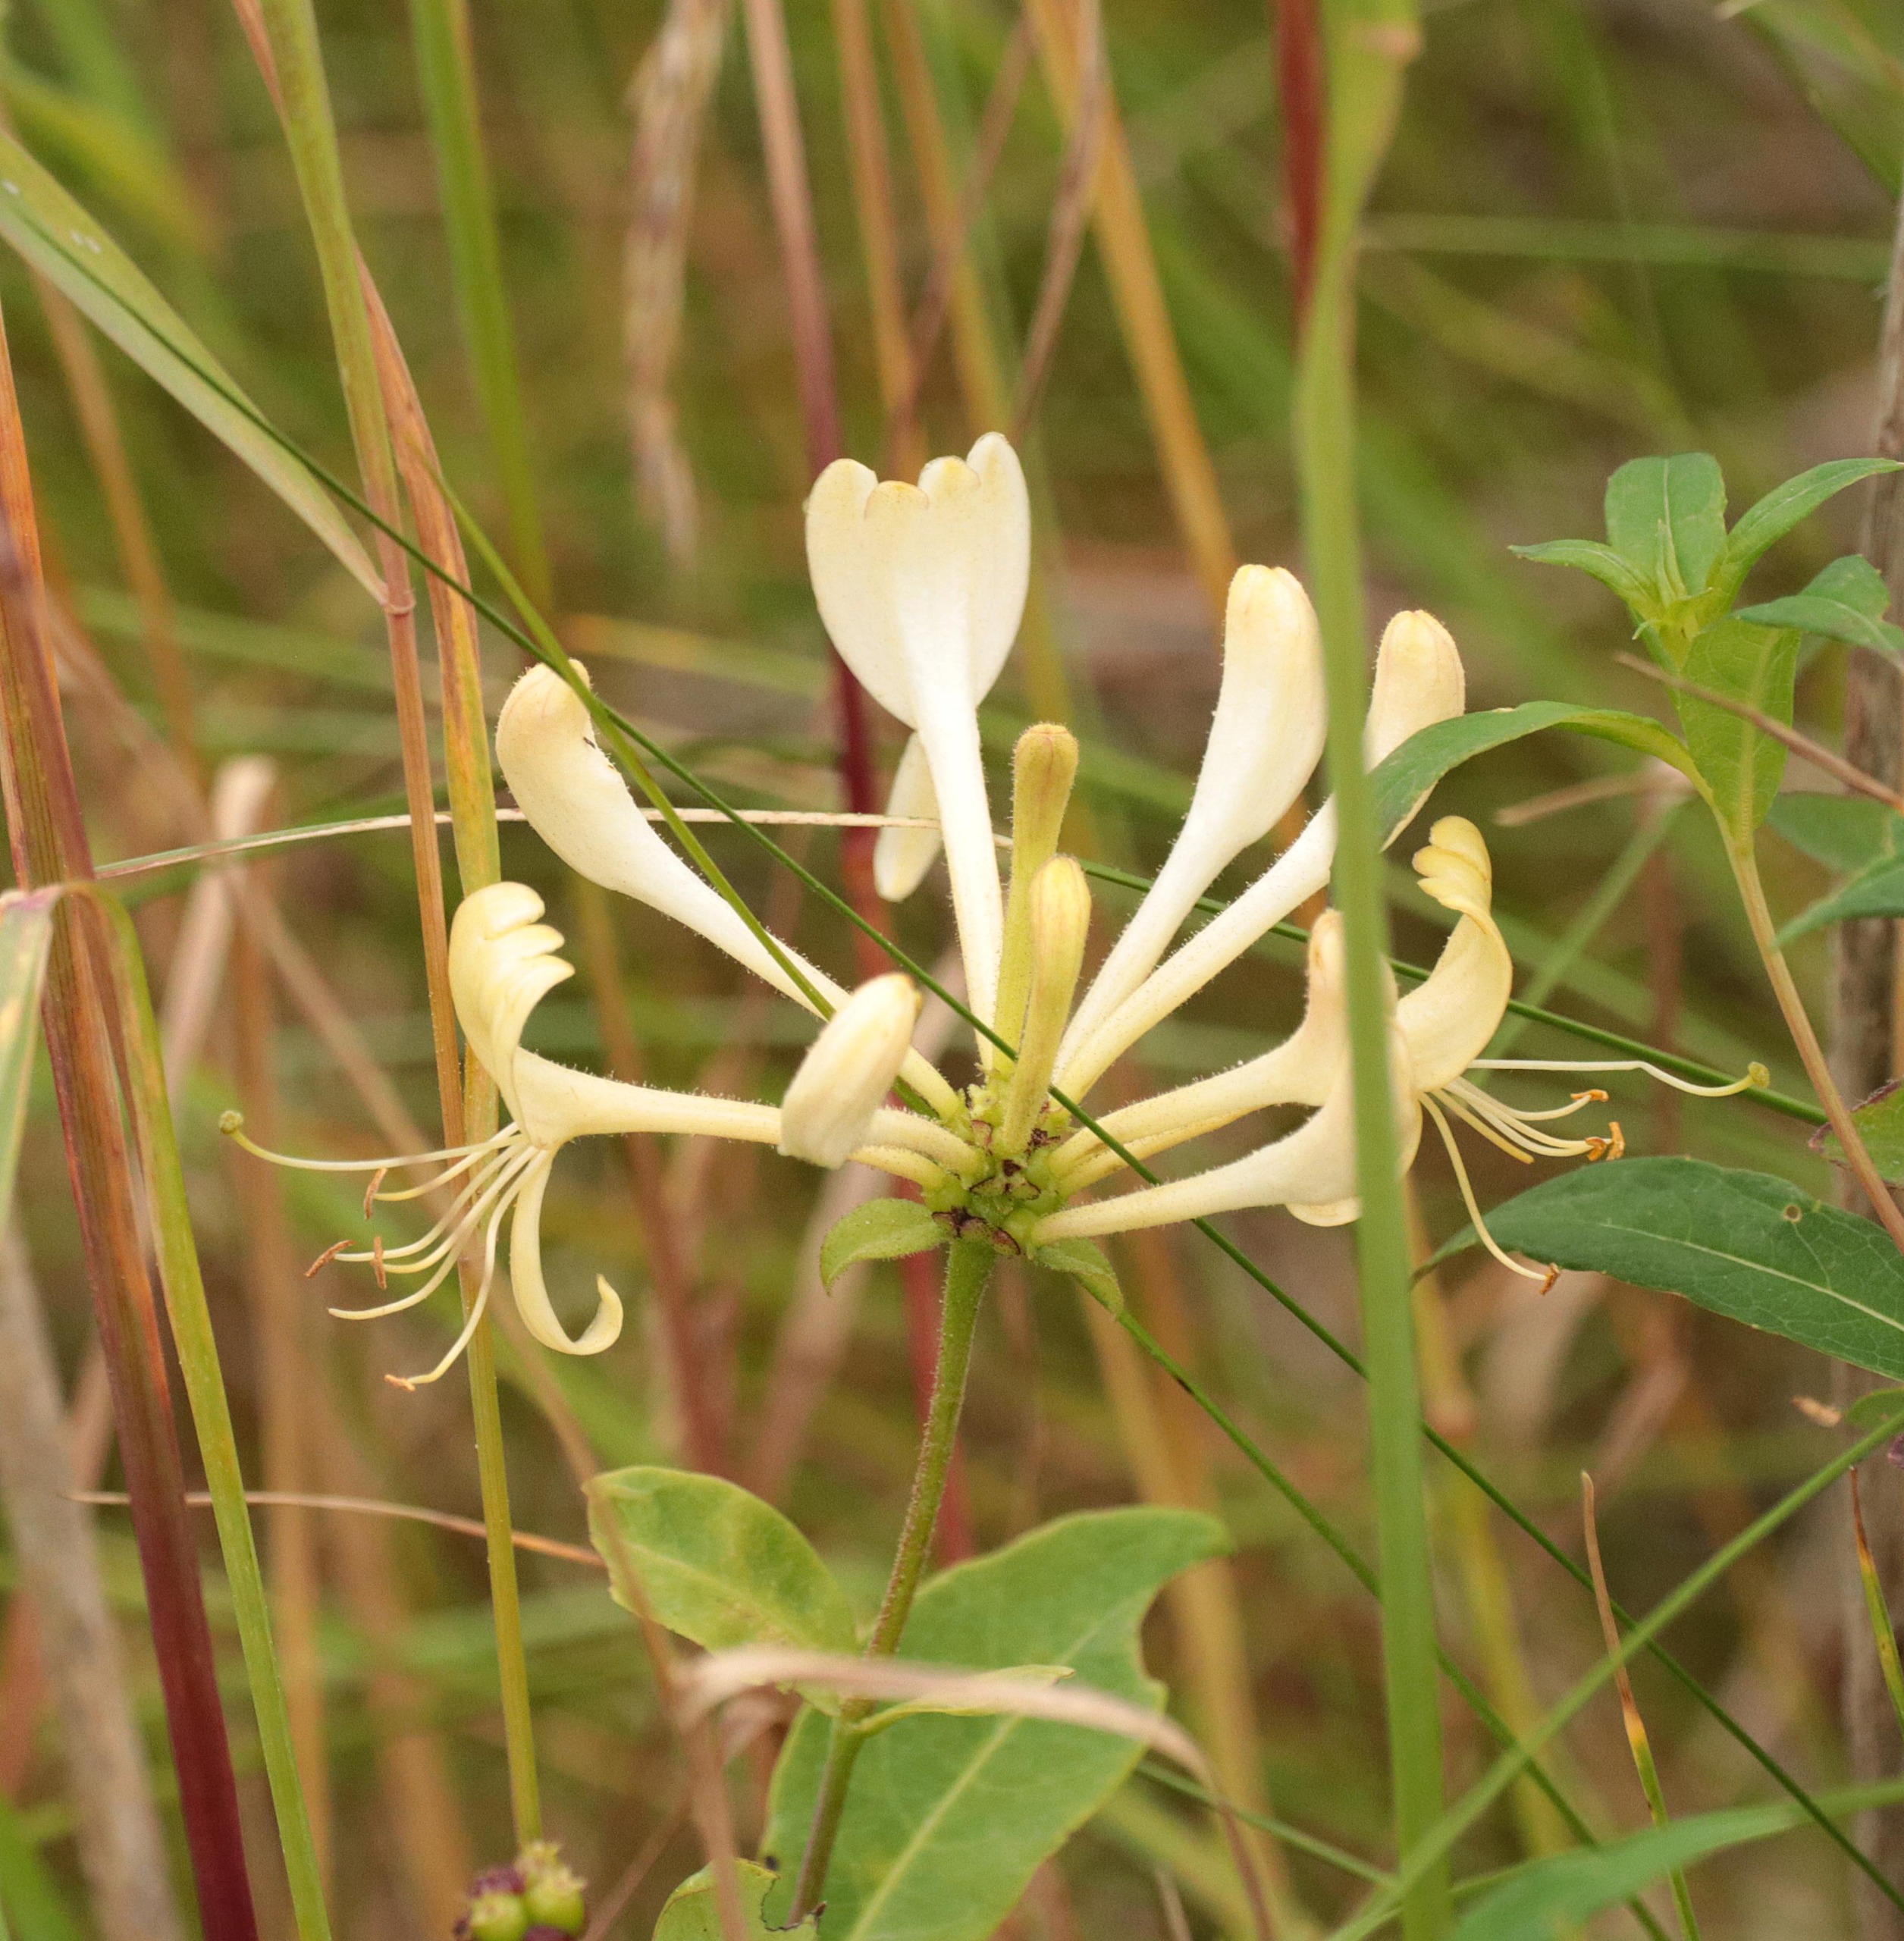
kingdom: Plantae
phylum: Tracheophyta
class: Magnoliopsida
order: Dipsacales
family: Caprifoliaceae
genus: Lonicera
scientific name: Lonicera periclymenum
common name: Almindelig gedeblad
